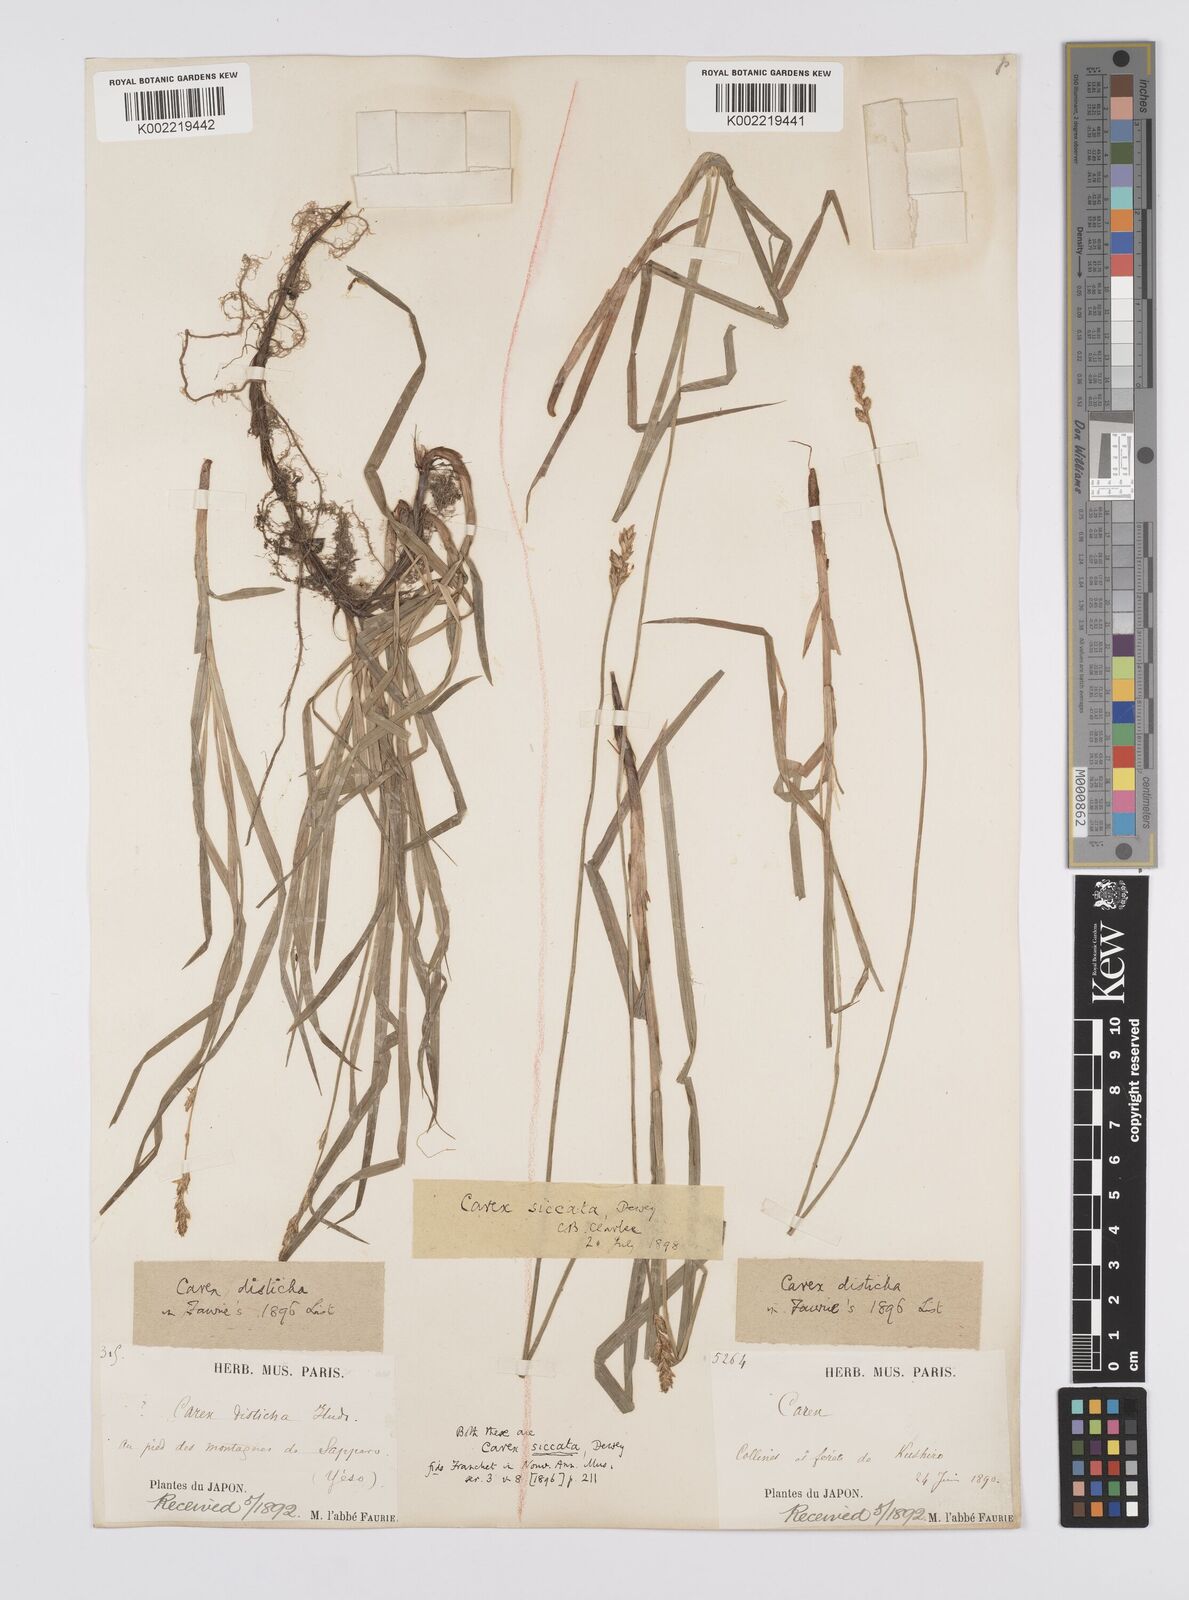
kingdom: Plantae
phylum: Tracheophyta
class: Liliopsida
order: Poales
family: Cyperaceae
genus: Carex
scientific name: Carex disticha
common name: Brown sedge
